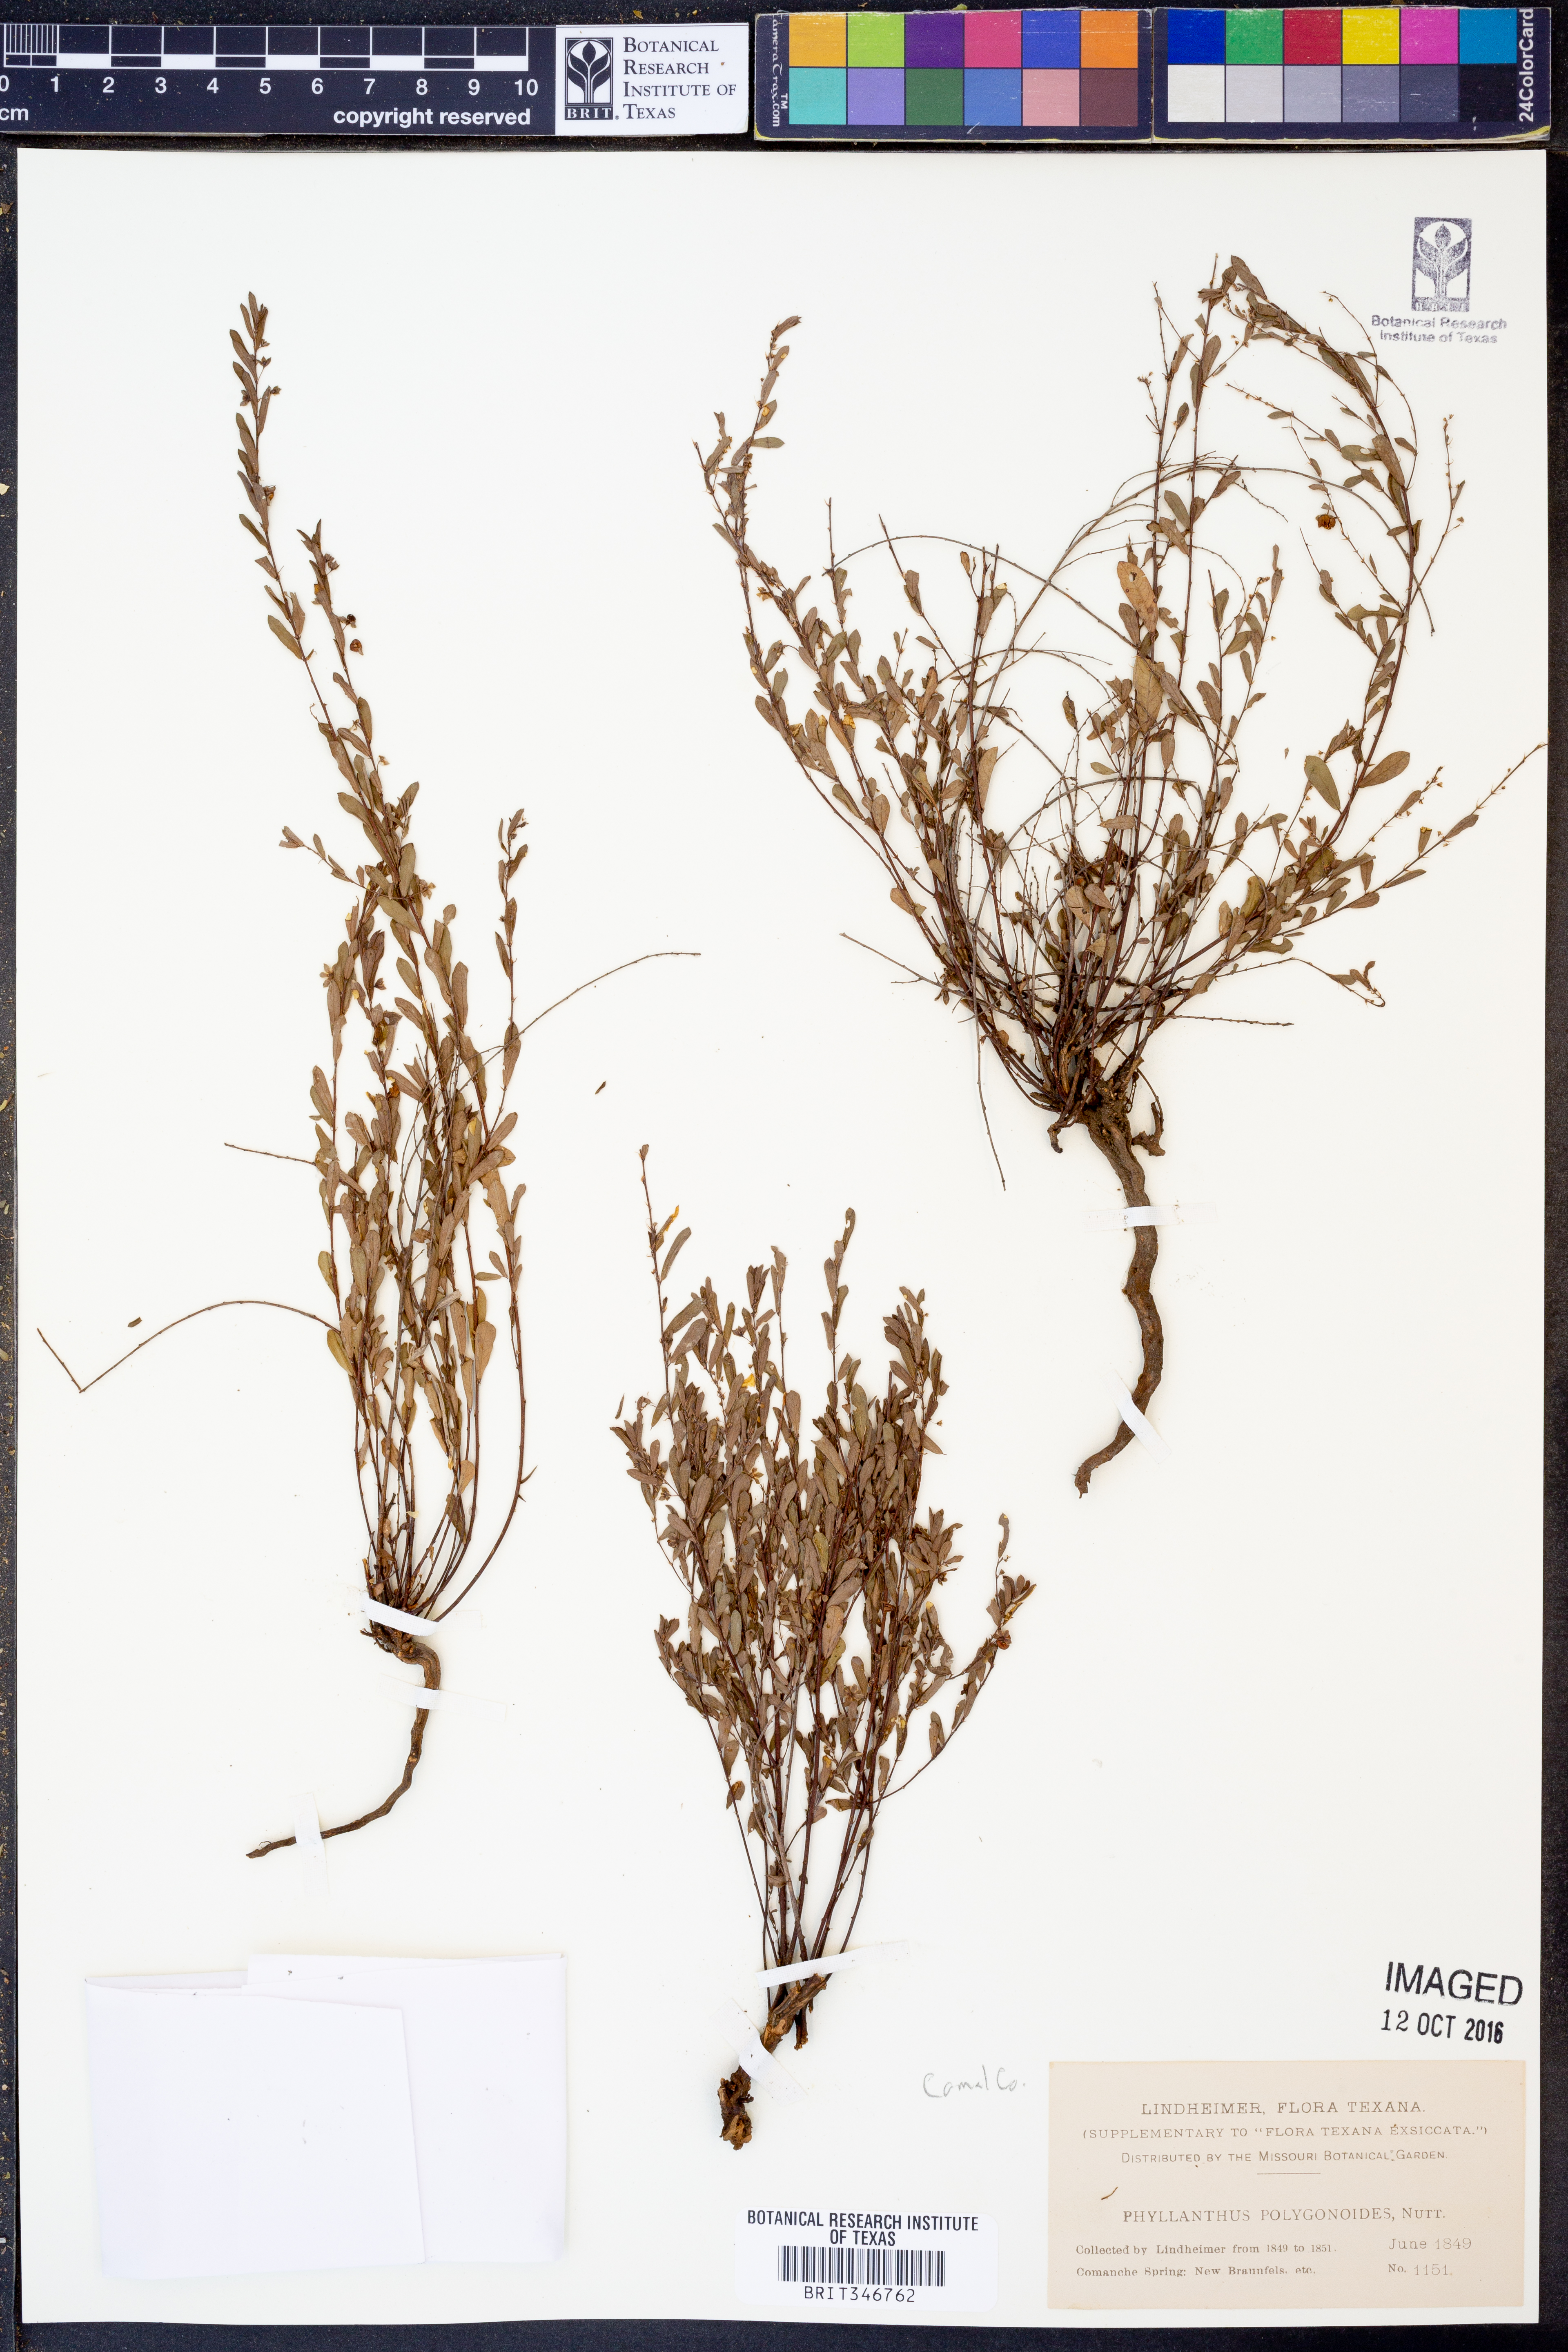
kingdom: Plantae
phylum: Tracheophyta
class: Magnoliopsida
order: Malpighiales
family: Phyllanthaceae
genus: Phyllanthus
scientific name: Phyllanthus polygonoides
